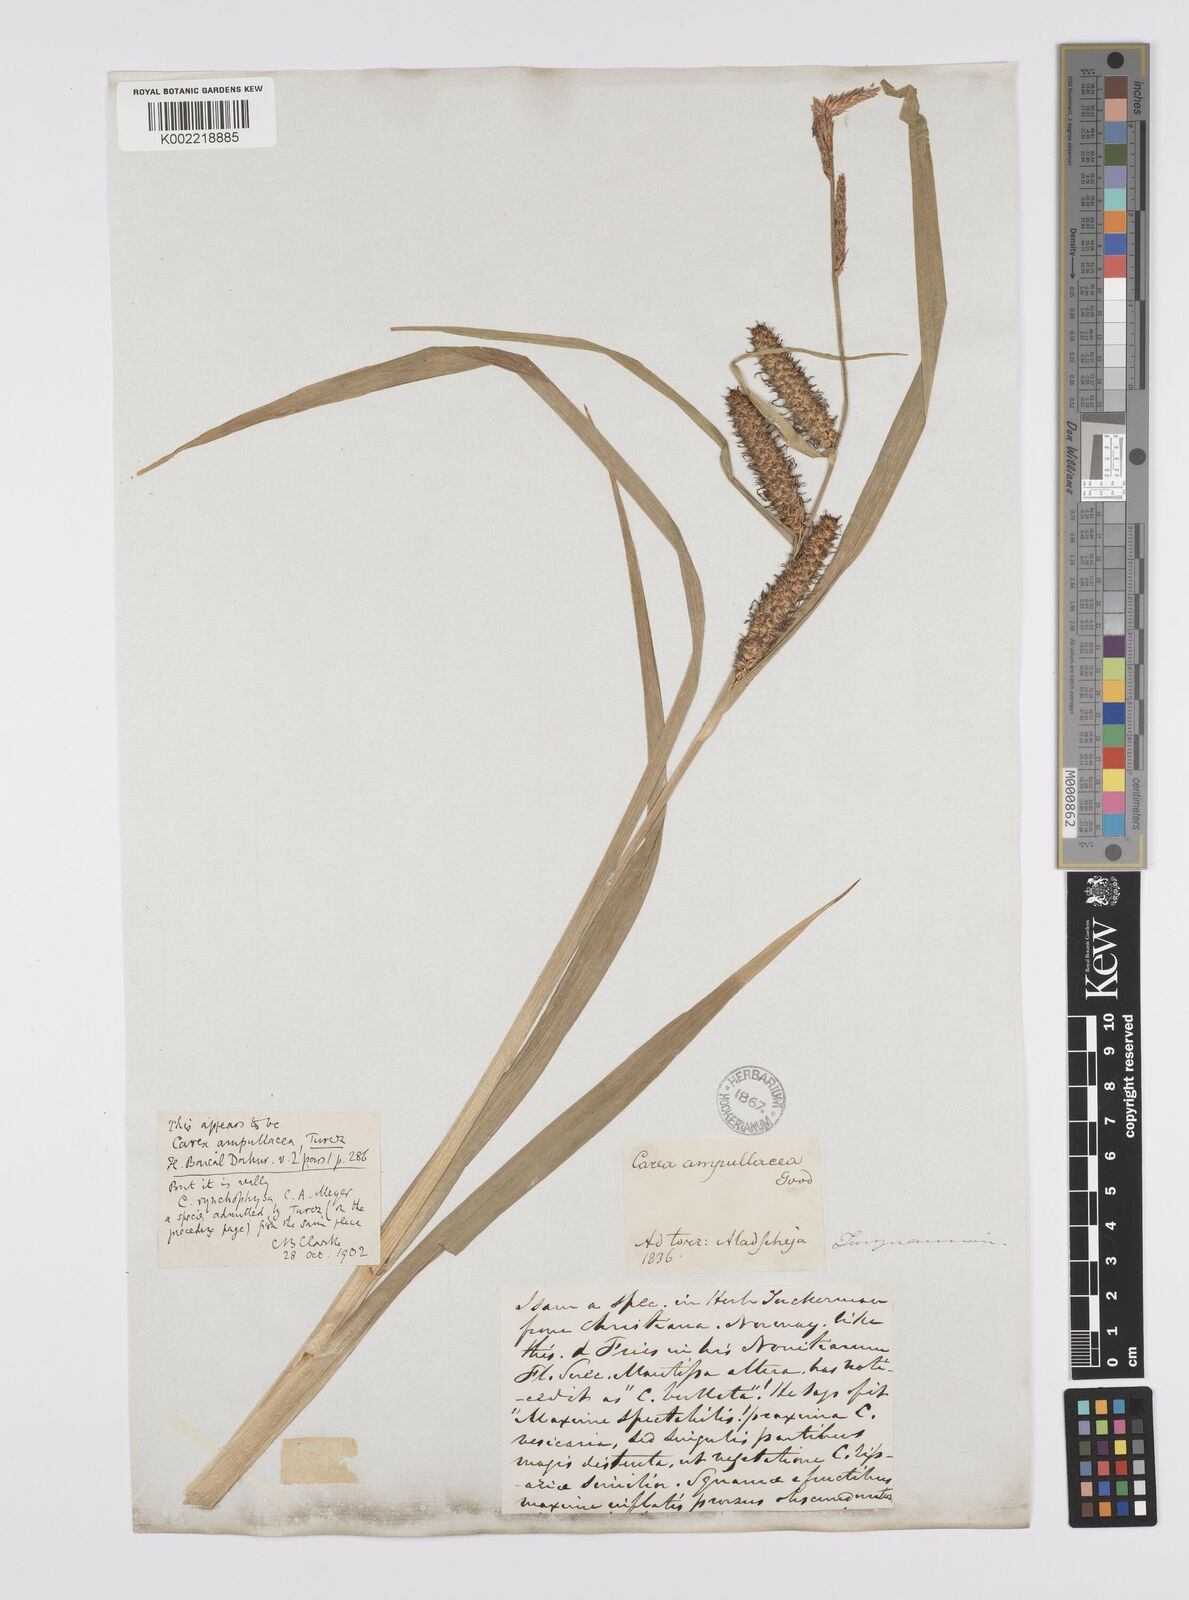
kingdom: Plantae
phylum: Tracheophyta
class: Liliopsida
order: Poales
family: Cyperaceae
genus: Carex
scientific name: Carex utriculata
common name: Beaked sedge
